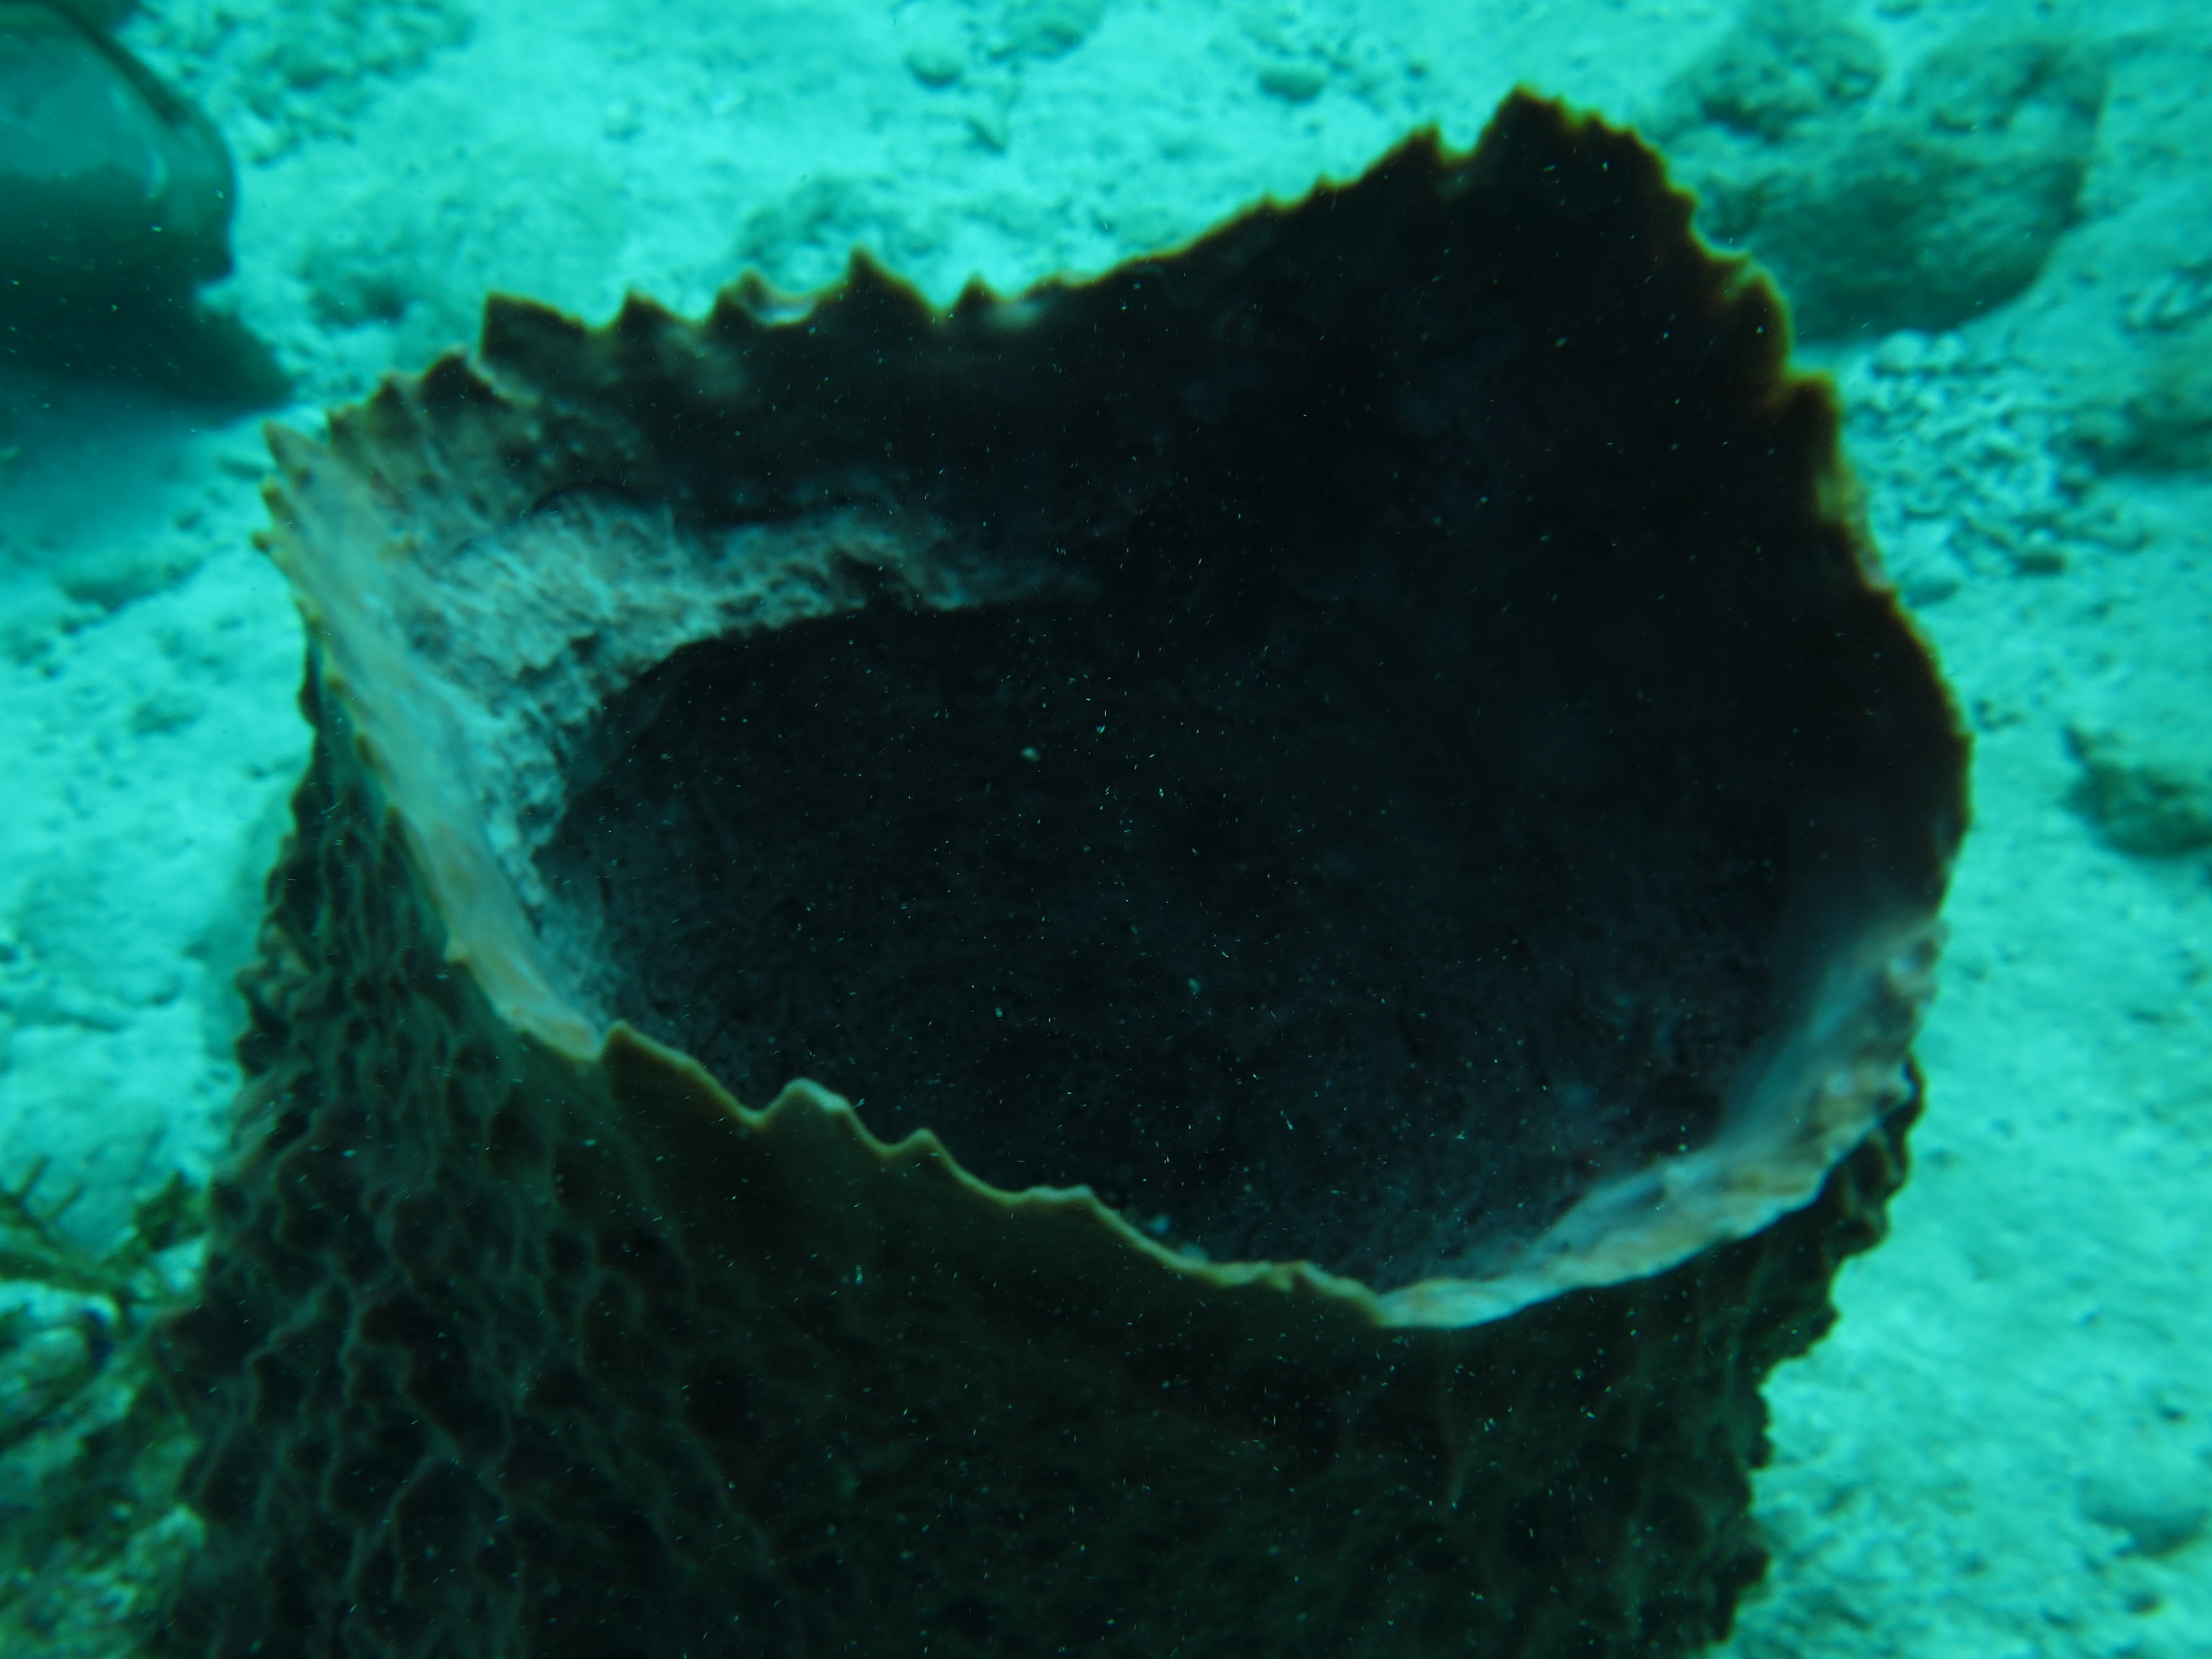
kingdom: Animalia
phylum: Porifera
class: Demospongiae
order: Haplosclerida
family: Petrosiidae
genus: Xestospongia
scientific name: Xestospongia muta
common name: Giant barrel sponge
